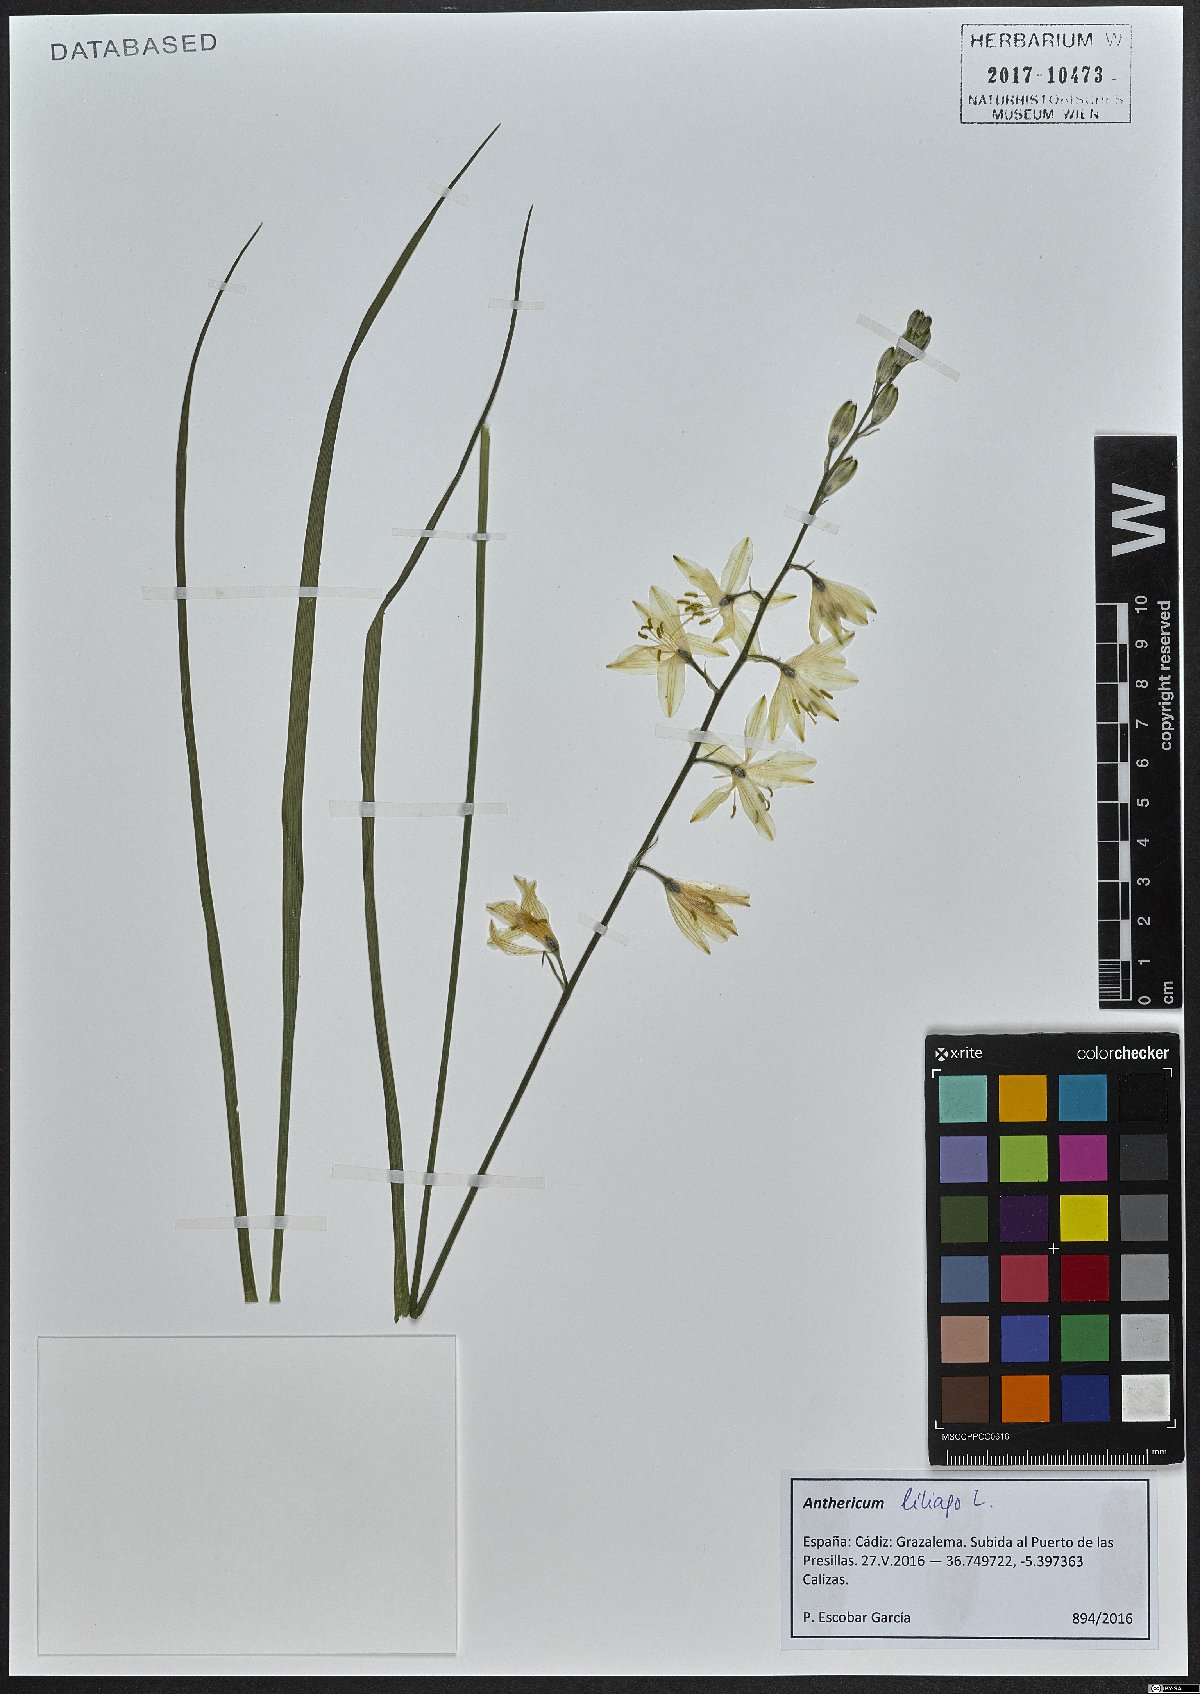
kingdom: Plantae
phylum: Tracheophyta
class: Liliopsida
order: Asparagales
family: Asparagaceae
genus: Anthericum
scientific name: Anthericum liliago
